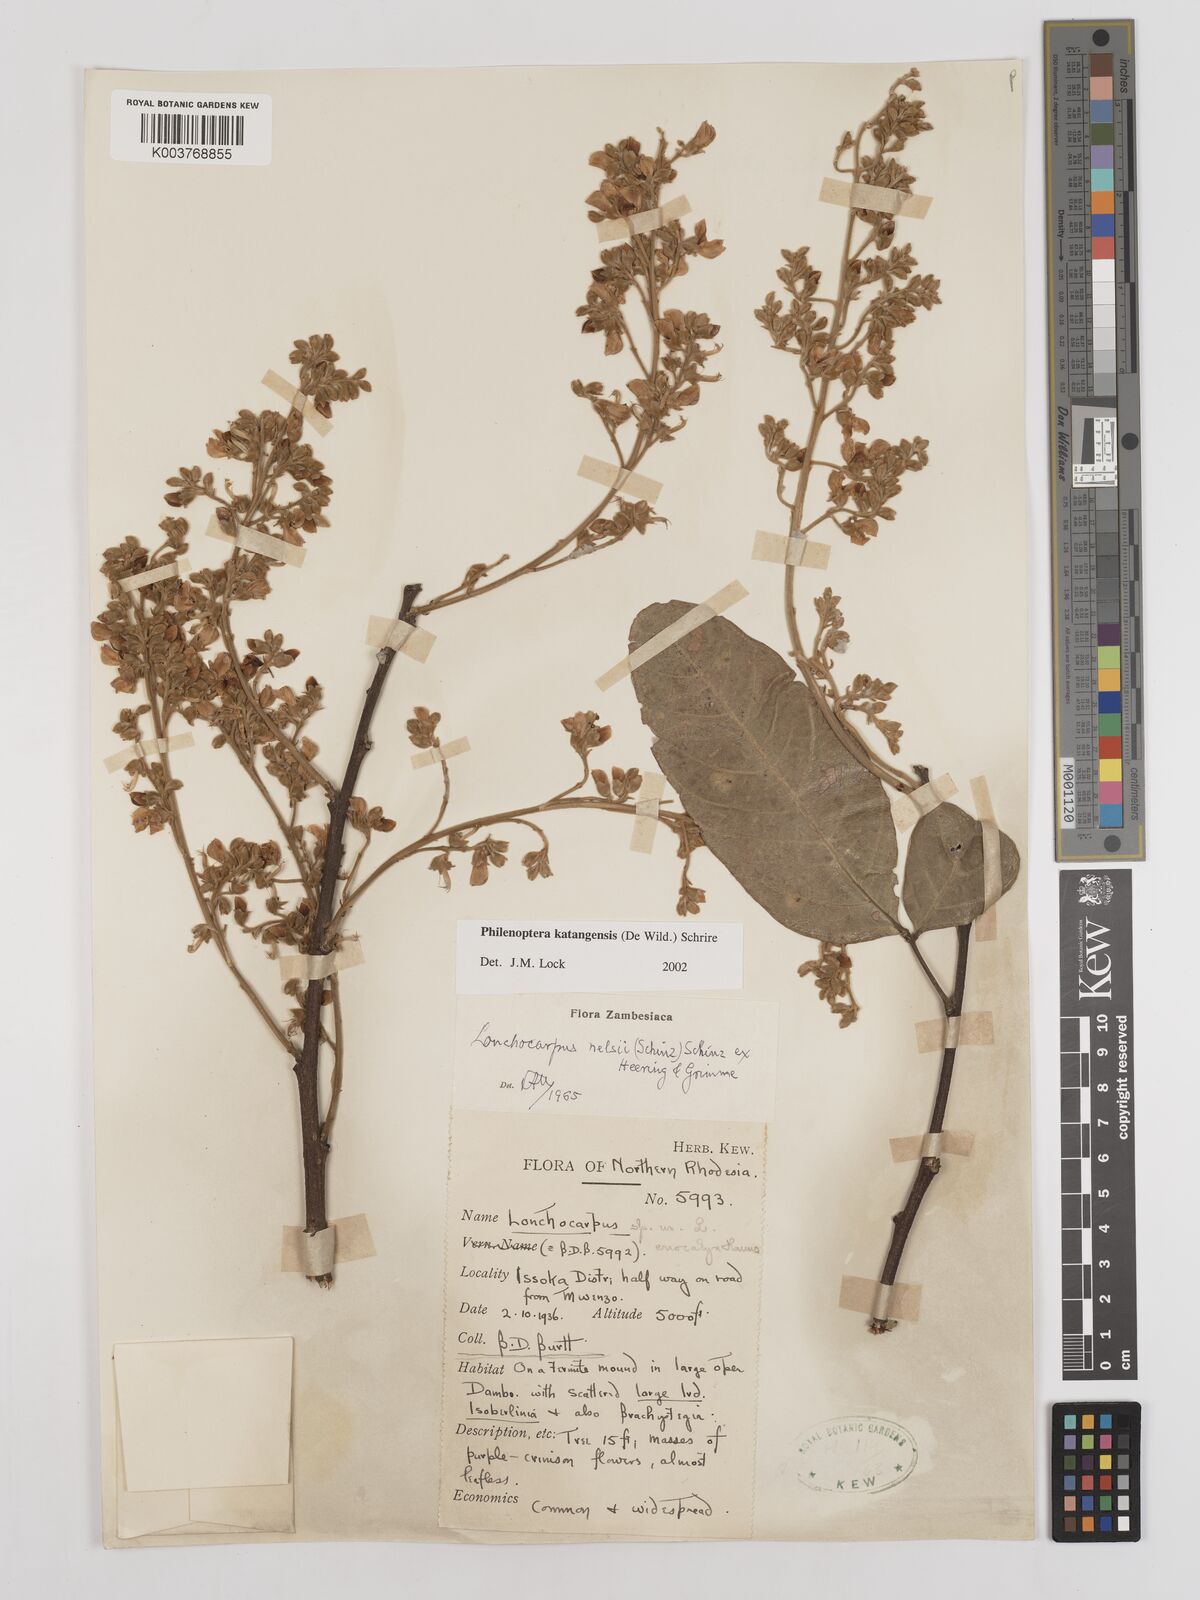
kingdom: Plantae
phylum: Tracheophyta
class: Magnoliopsida
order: Fabales
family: Fabaceae
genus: Philenoptera
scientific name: Philenoptera katangensis
